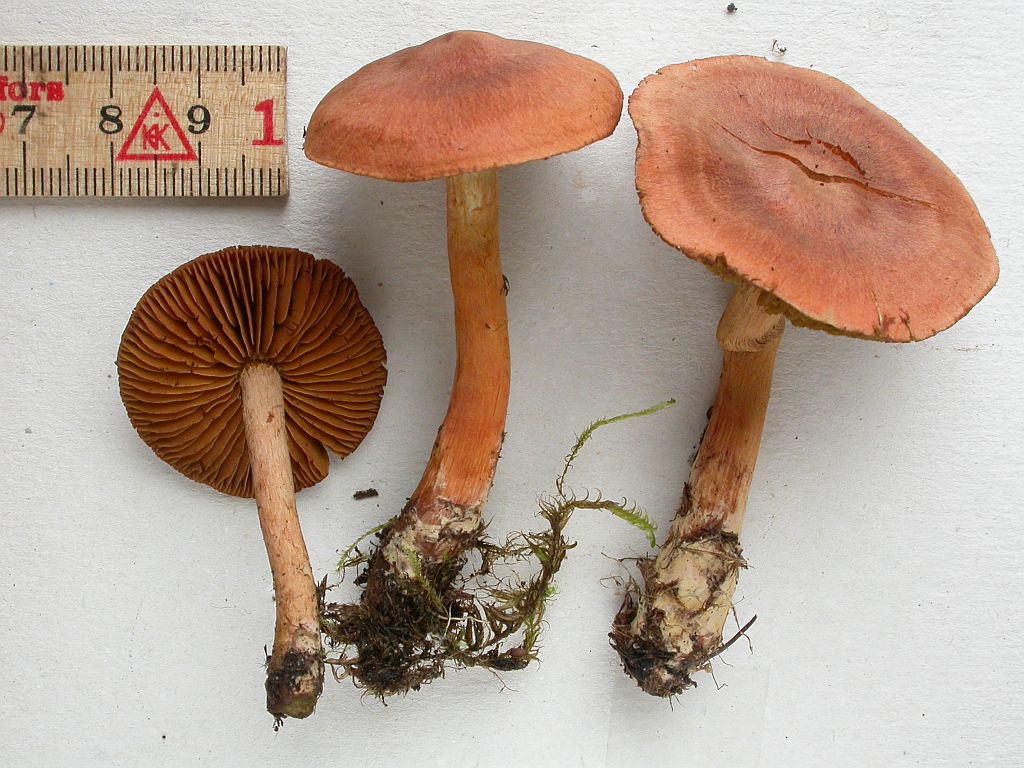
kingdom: Fungi
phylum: Basidiomycota
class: Agaricomycetes
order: Agaricales
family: Cortinariaceae
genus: Cortinarius
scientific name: Cortinarius uliginosus
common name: mose-slørhat
